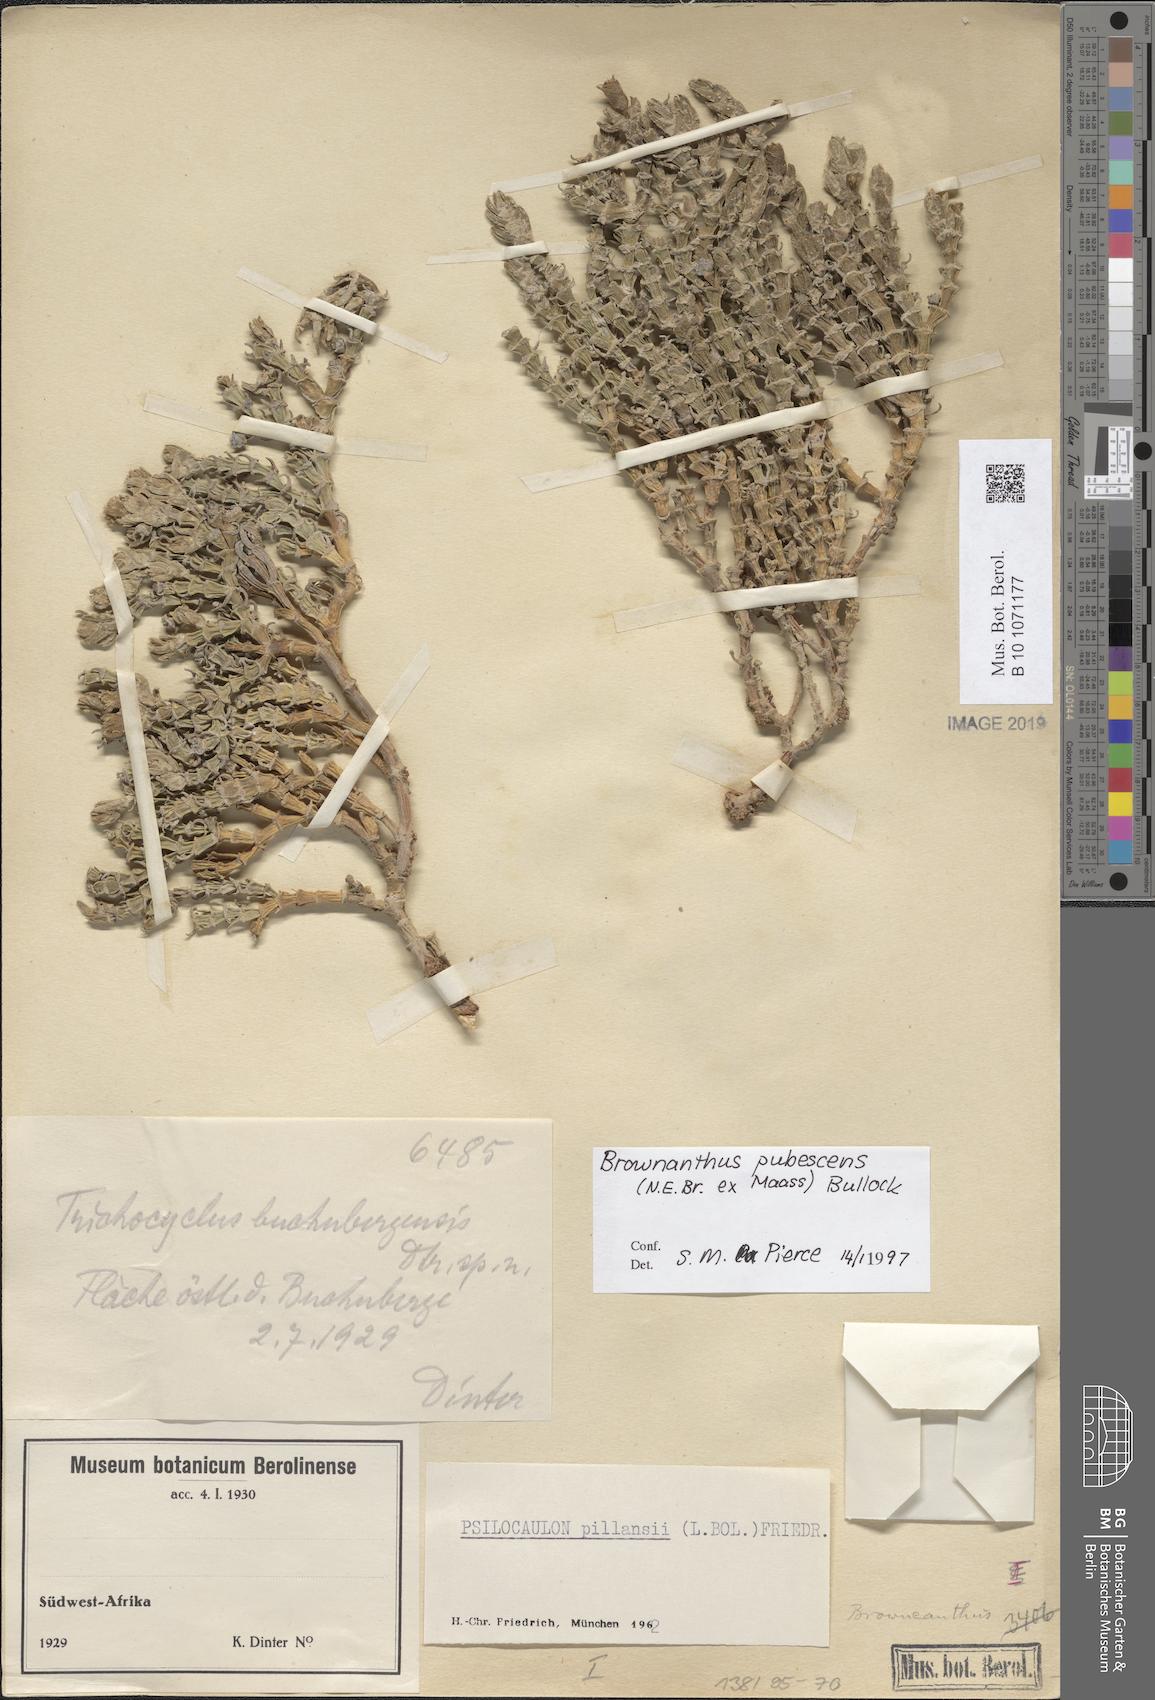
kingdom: Plantae
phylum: Tracheophyta
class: Magnoliopsida
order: Caryophyllales
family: Aizoaceae
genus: Mesembryanthemum
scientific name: Mesembryanthemum tomentosum
